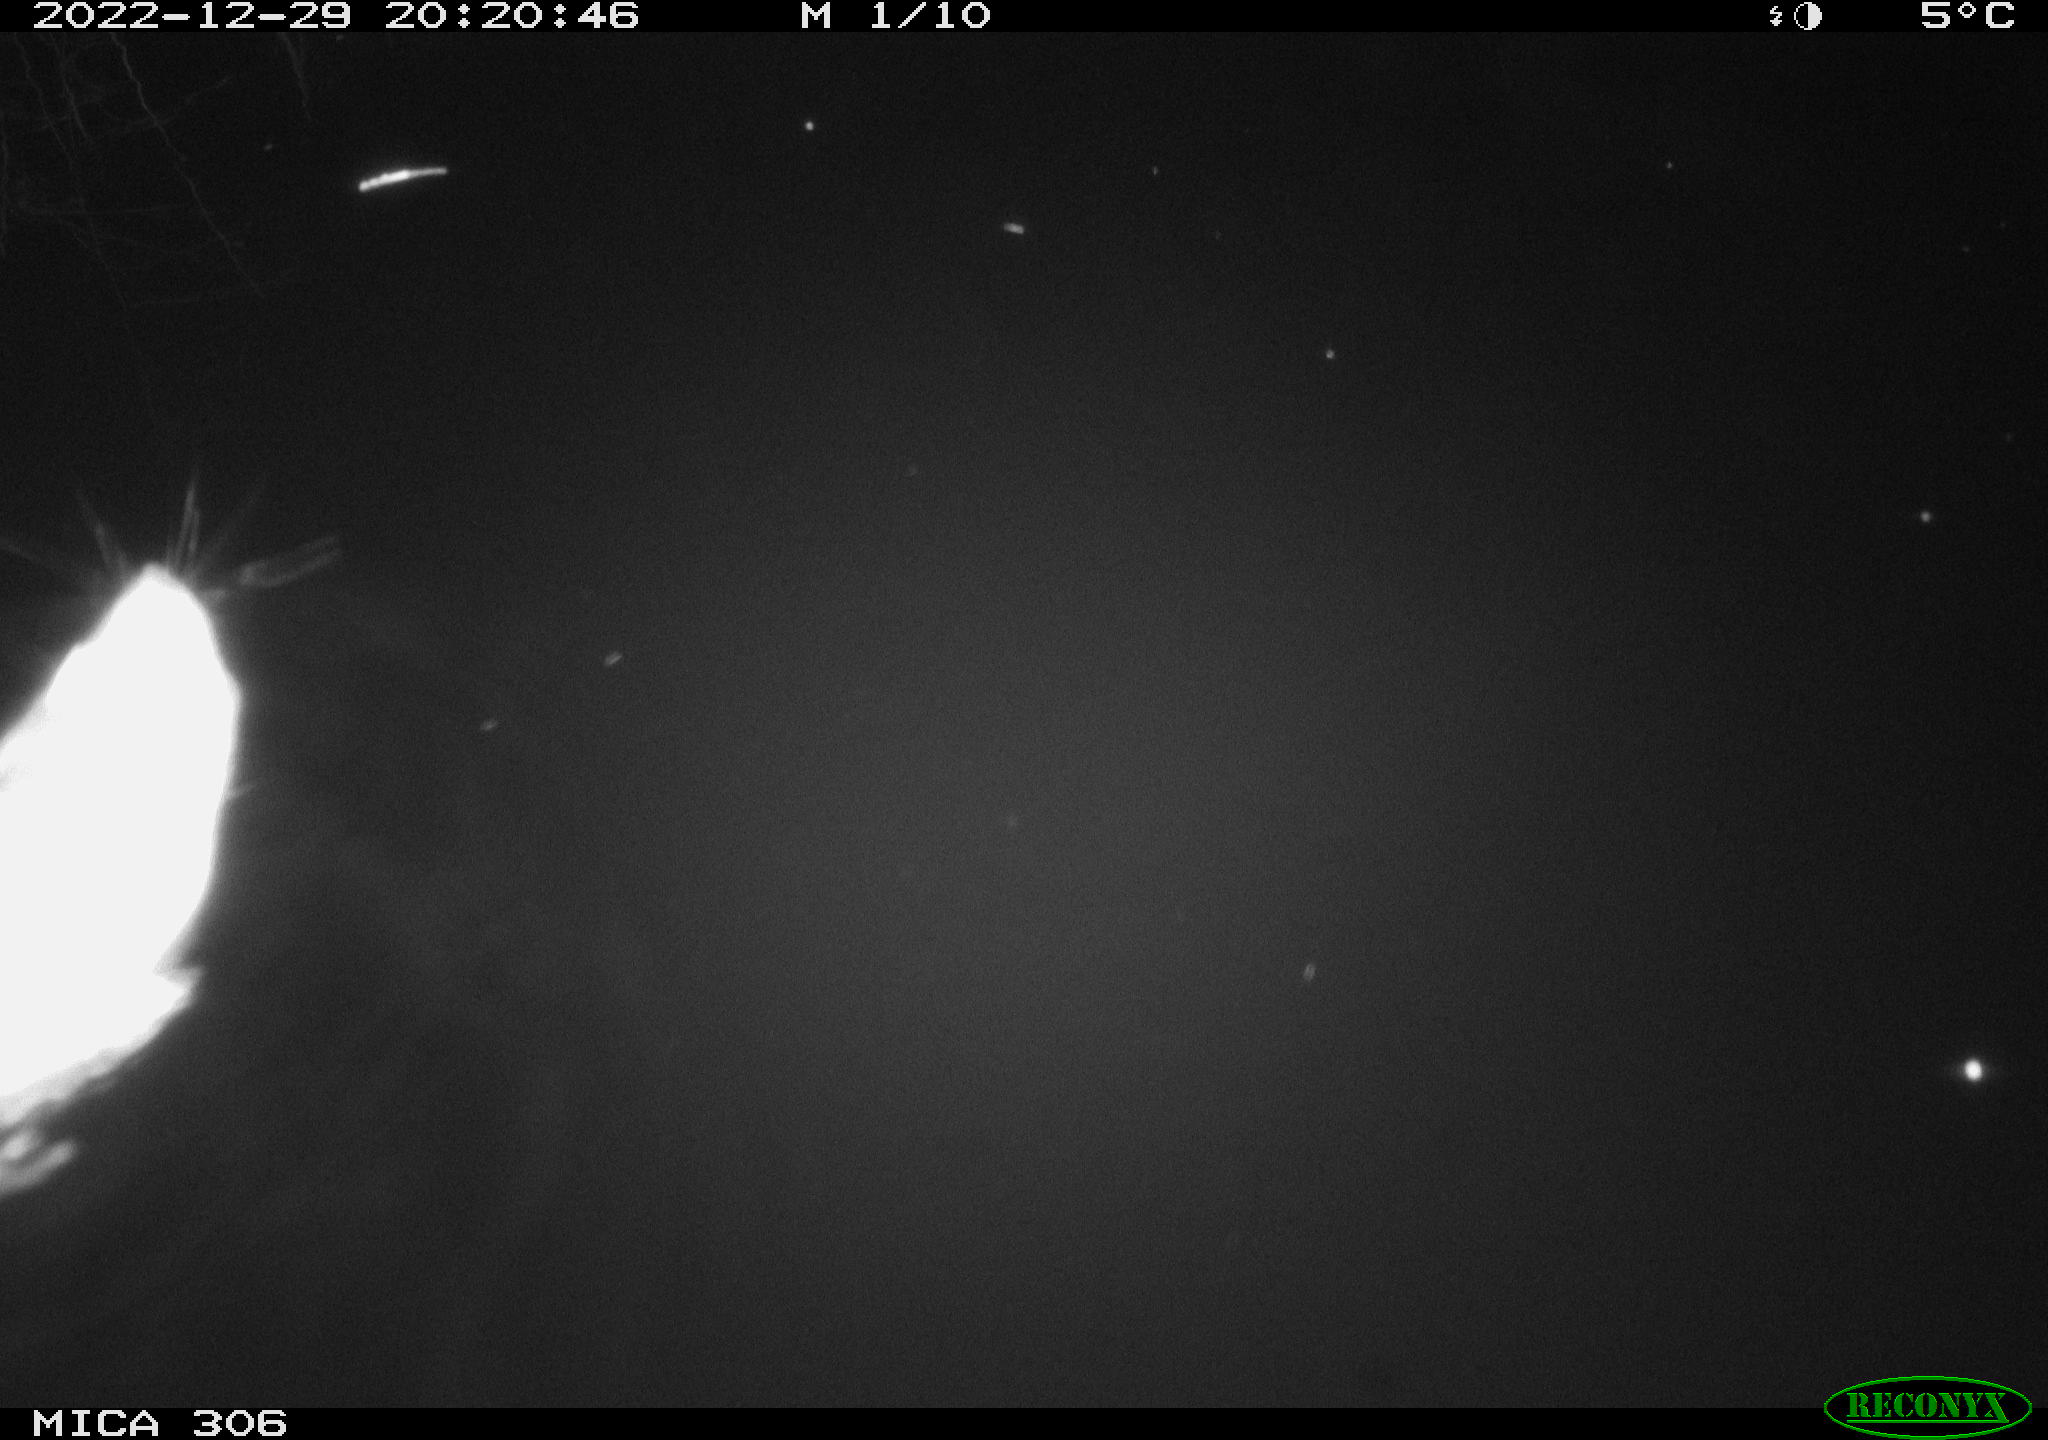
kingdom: Animalia
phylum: Chordata
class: Mammalia
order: Rodentia
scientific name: Rodentia
